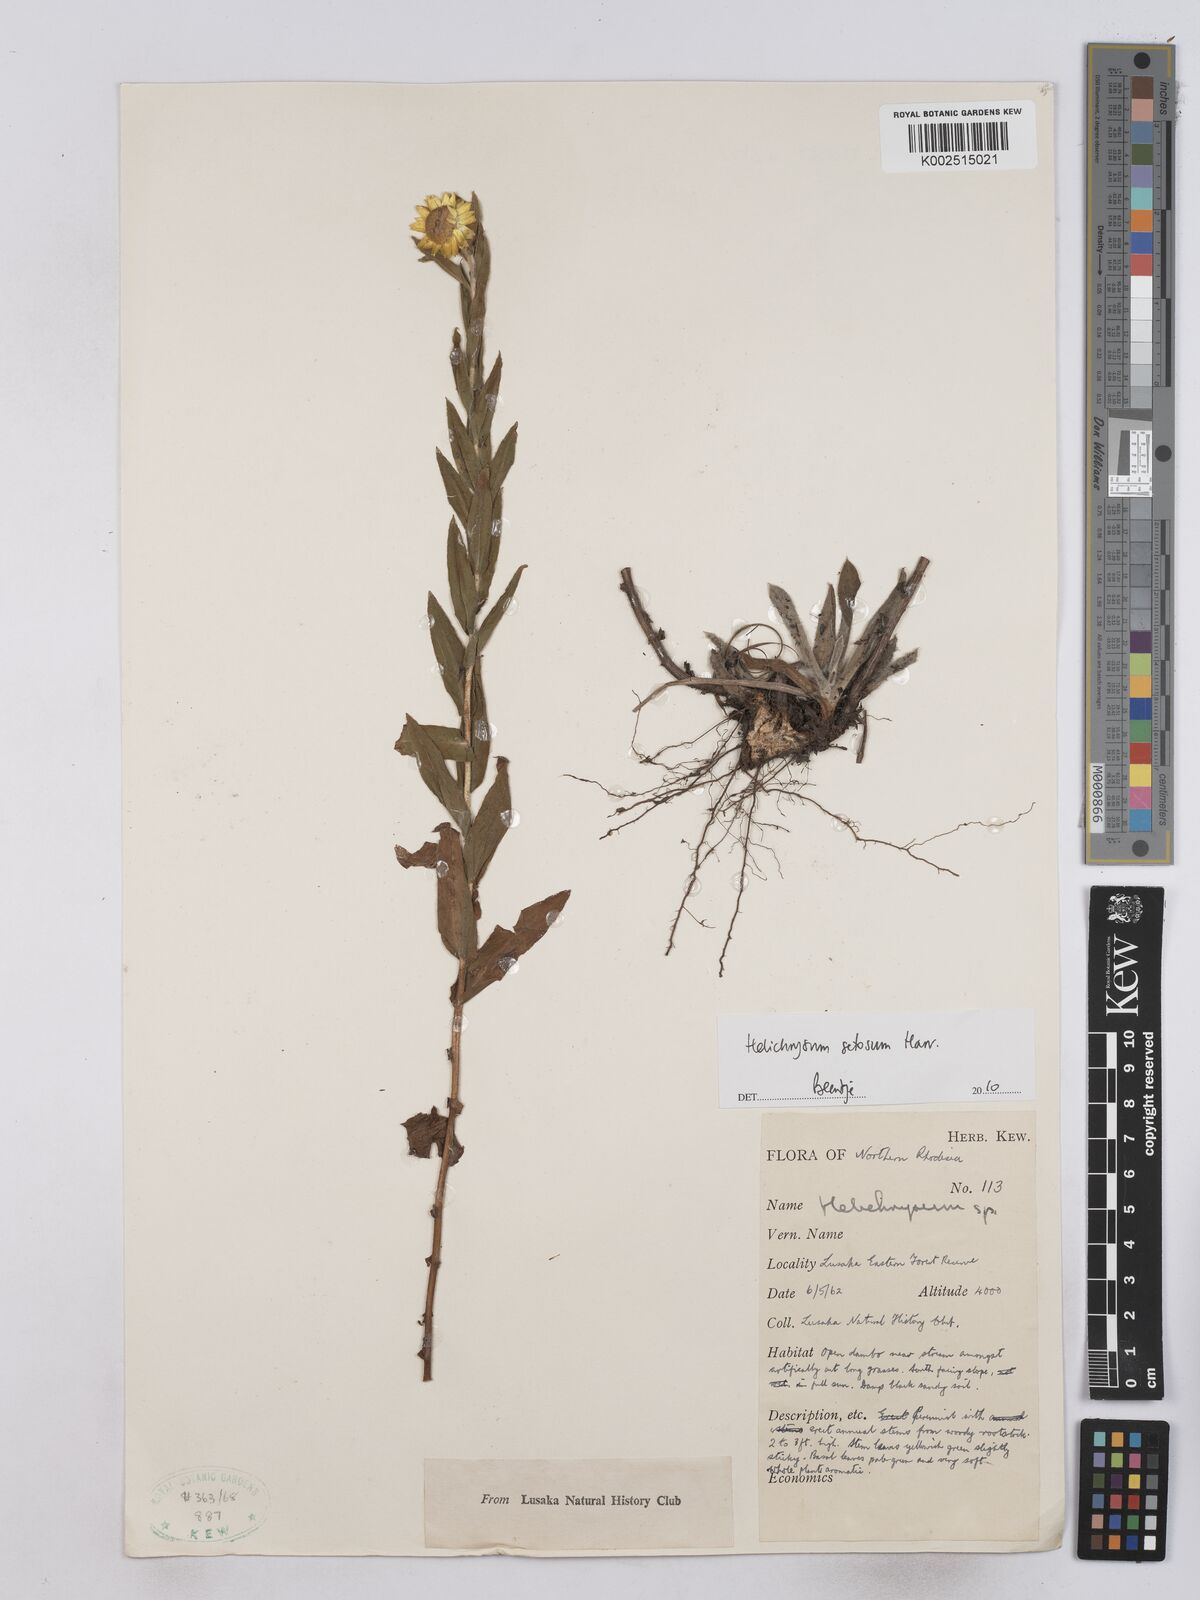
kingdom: Plantae
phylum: Tracheophyta
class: Magnoliopsida
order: Asterales
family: Asteraceae
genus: Helichrysum
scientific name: Helichrysum setosum
